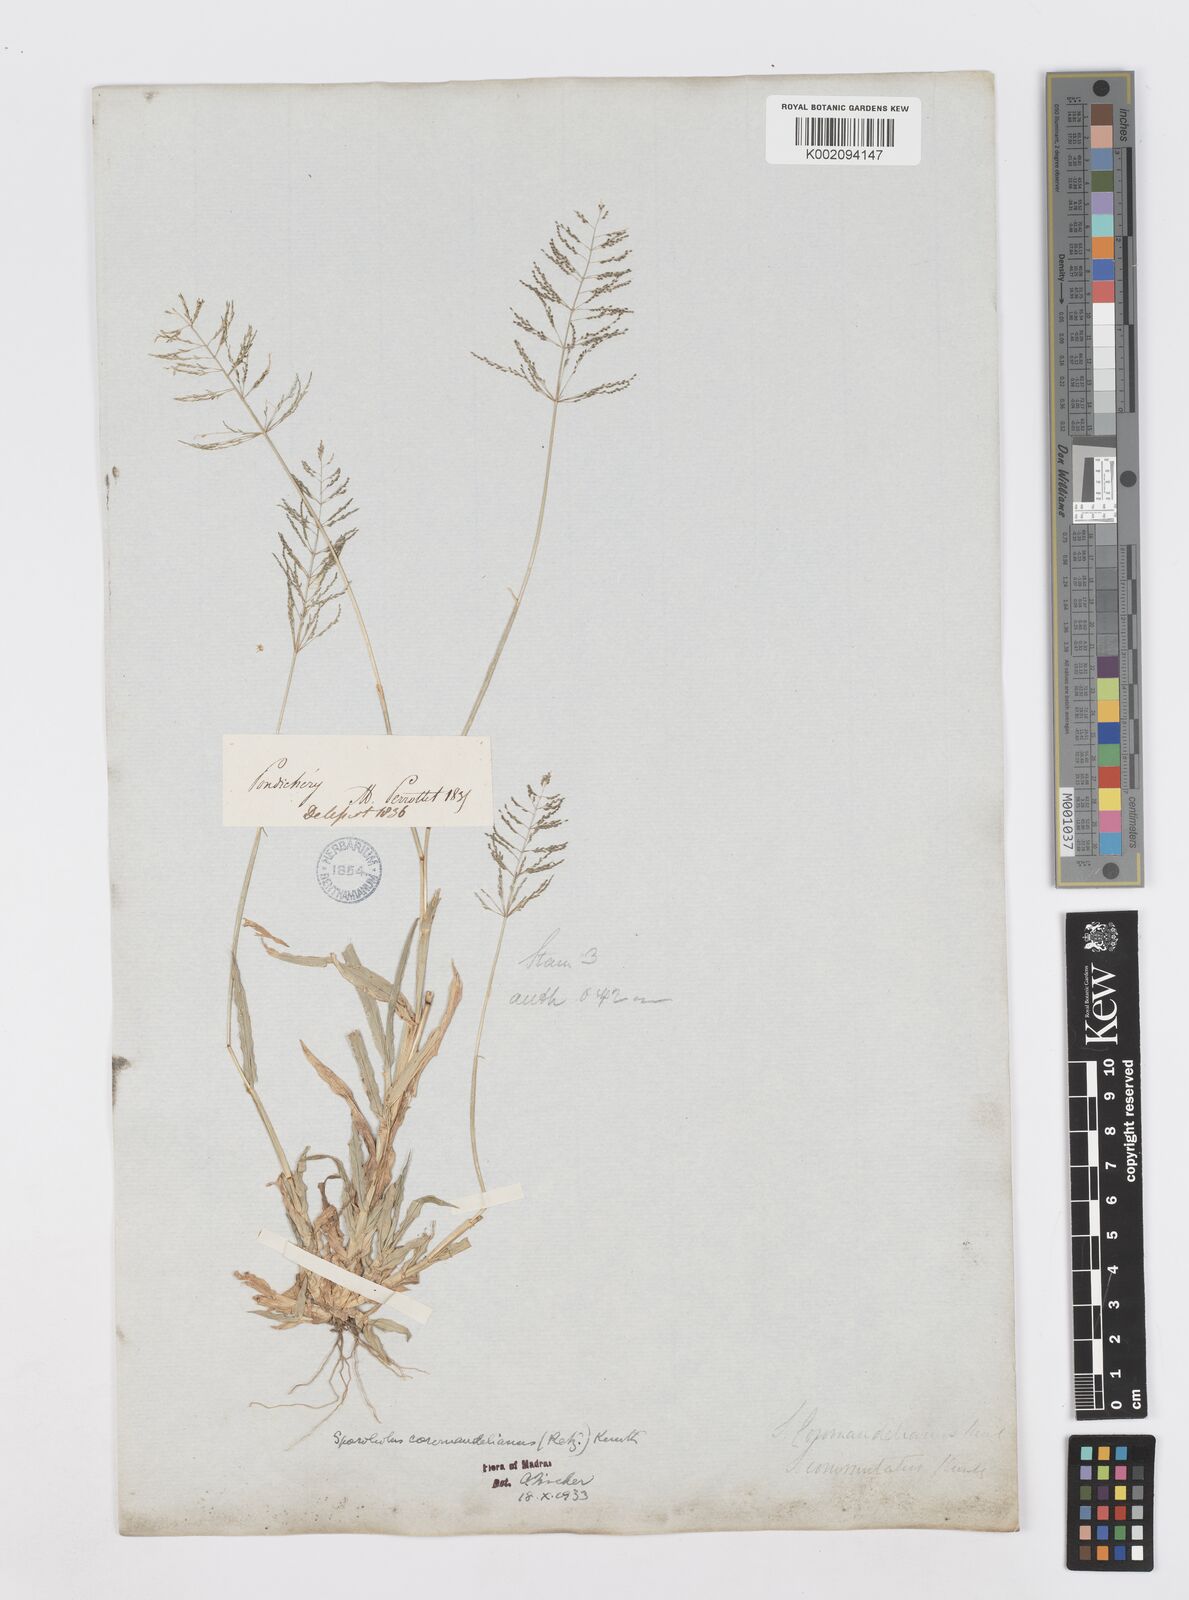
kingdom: Plantae
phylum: Tracheophyta
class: Liliopsida
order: Poales
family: Poaceae
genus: Sporobolus
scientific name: Sporobolus coromandelianus
